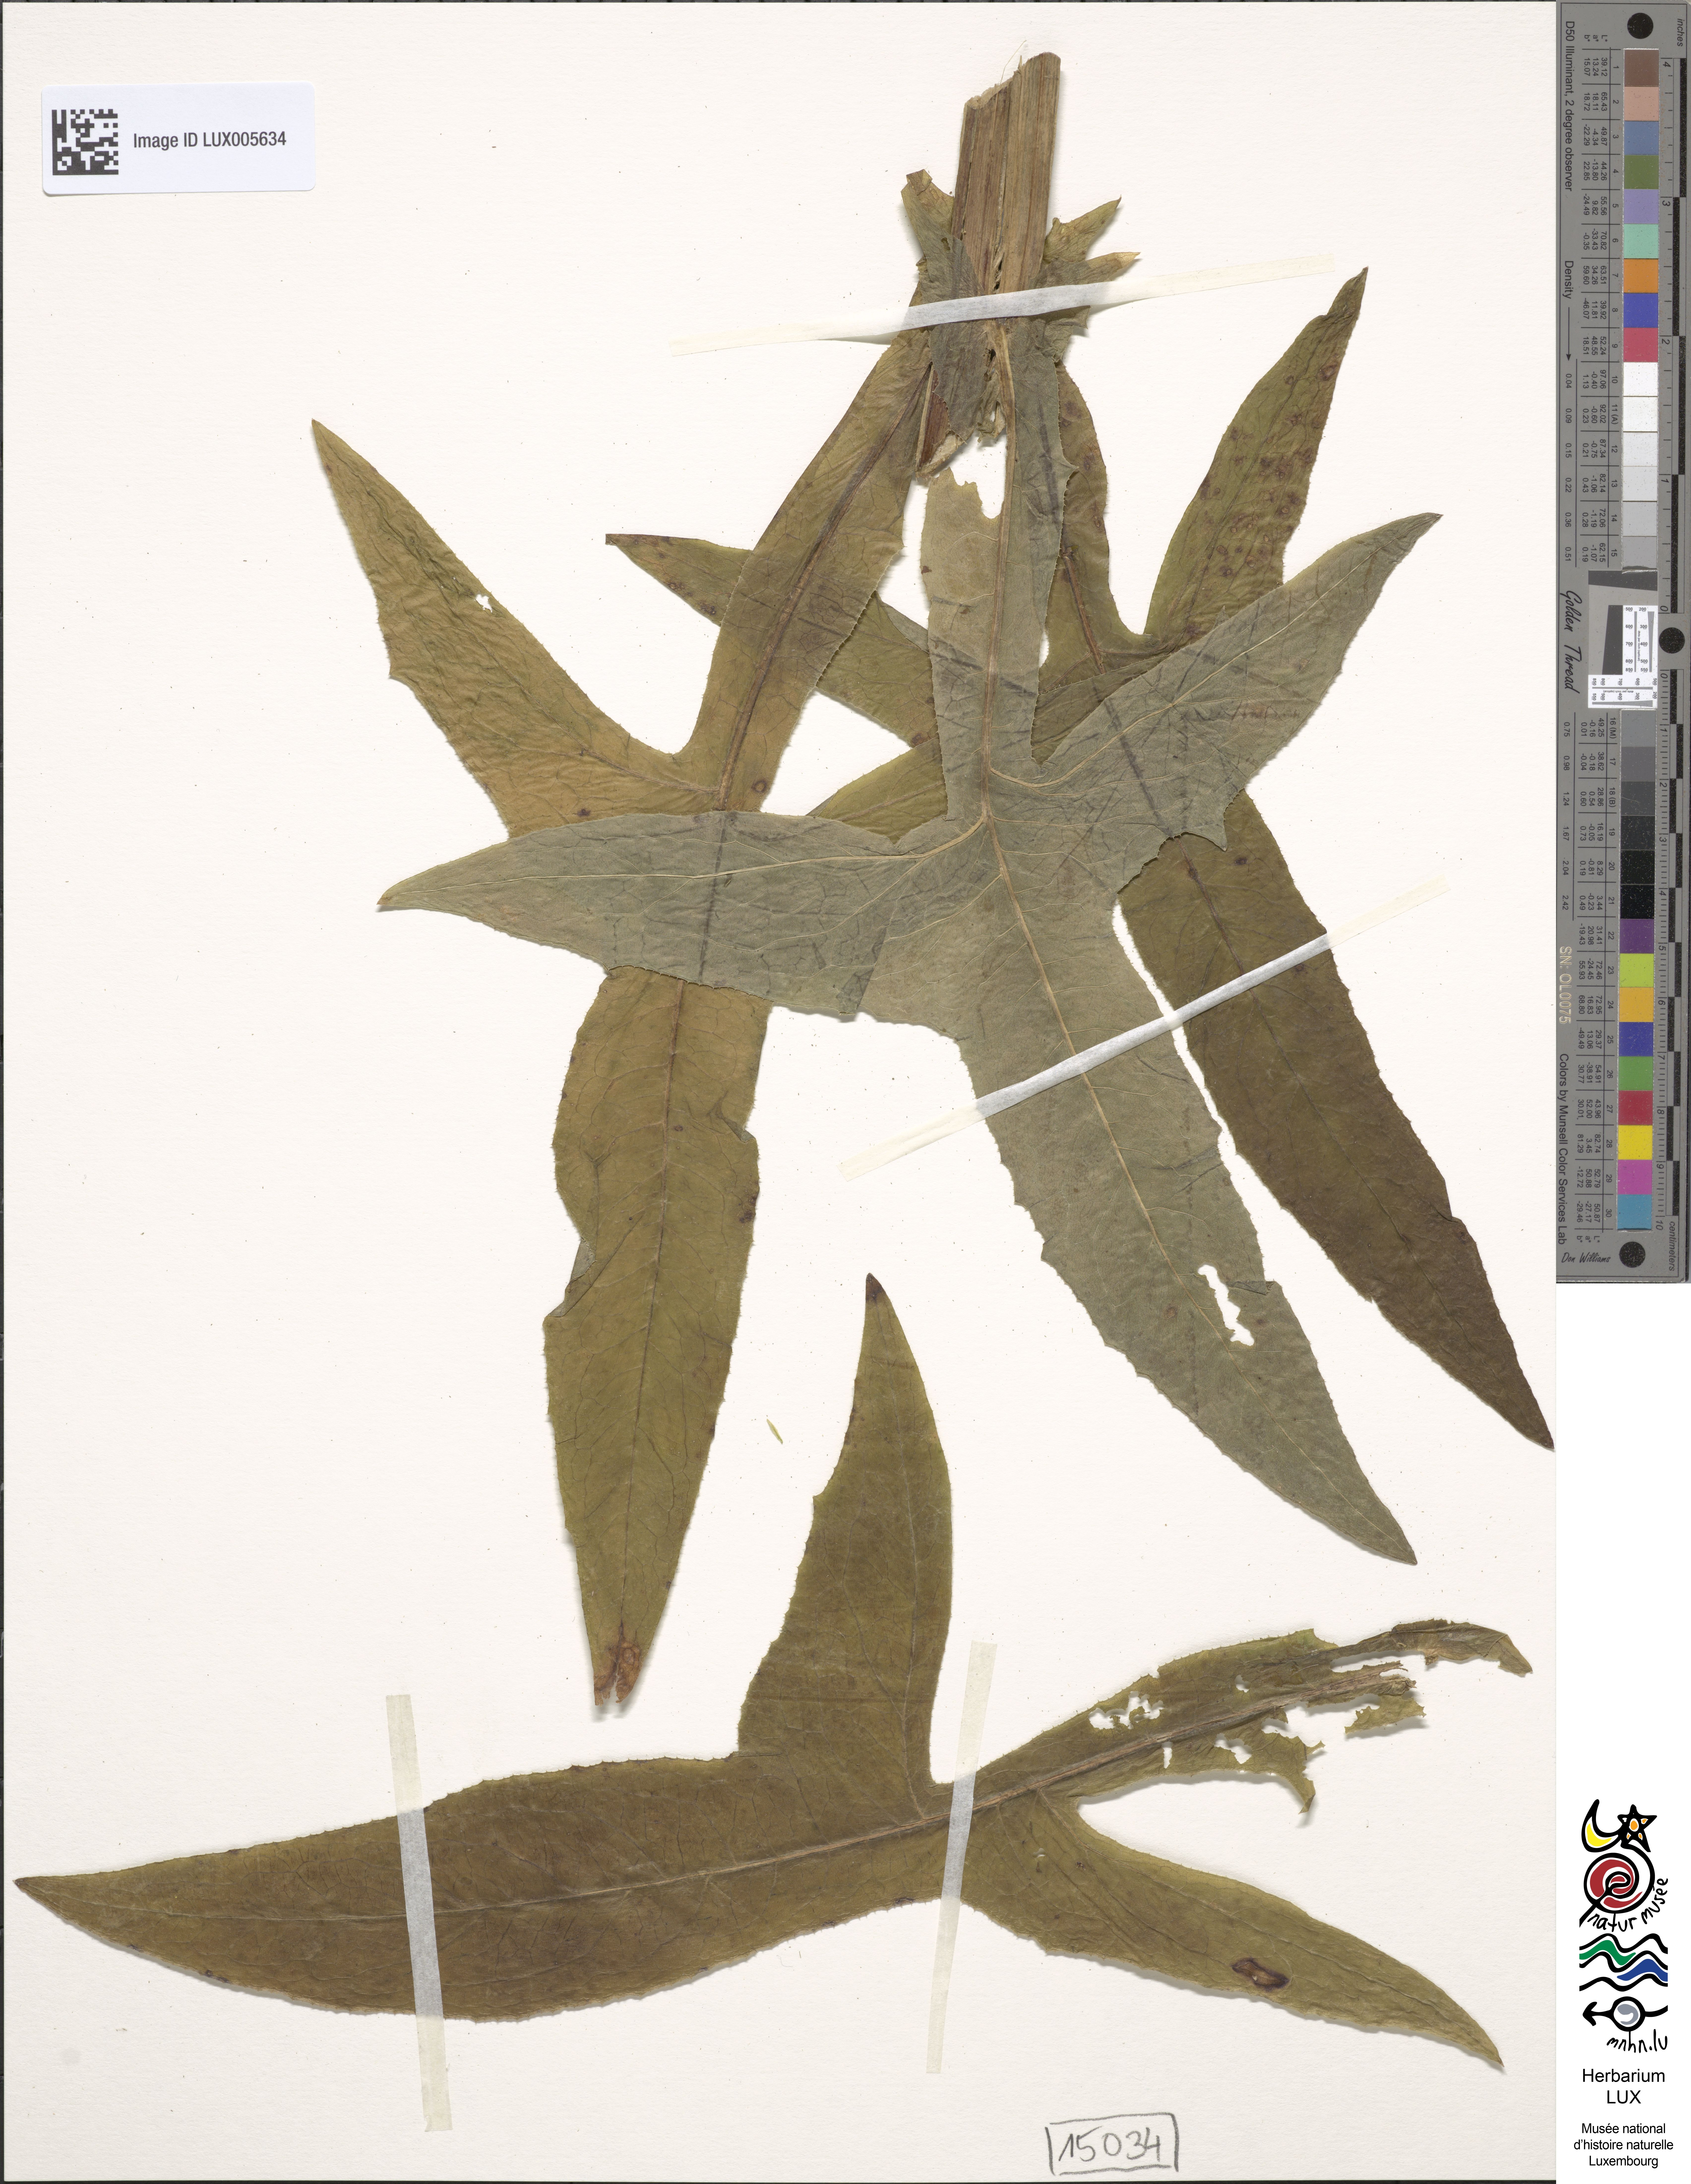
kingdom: Plantae
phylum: Tracheophyta
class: Magnoliopsida
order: Asterales
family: Asteraceae
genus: Sonchus
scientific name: Sonchus palustris
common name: Marsh sow-thistle
